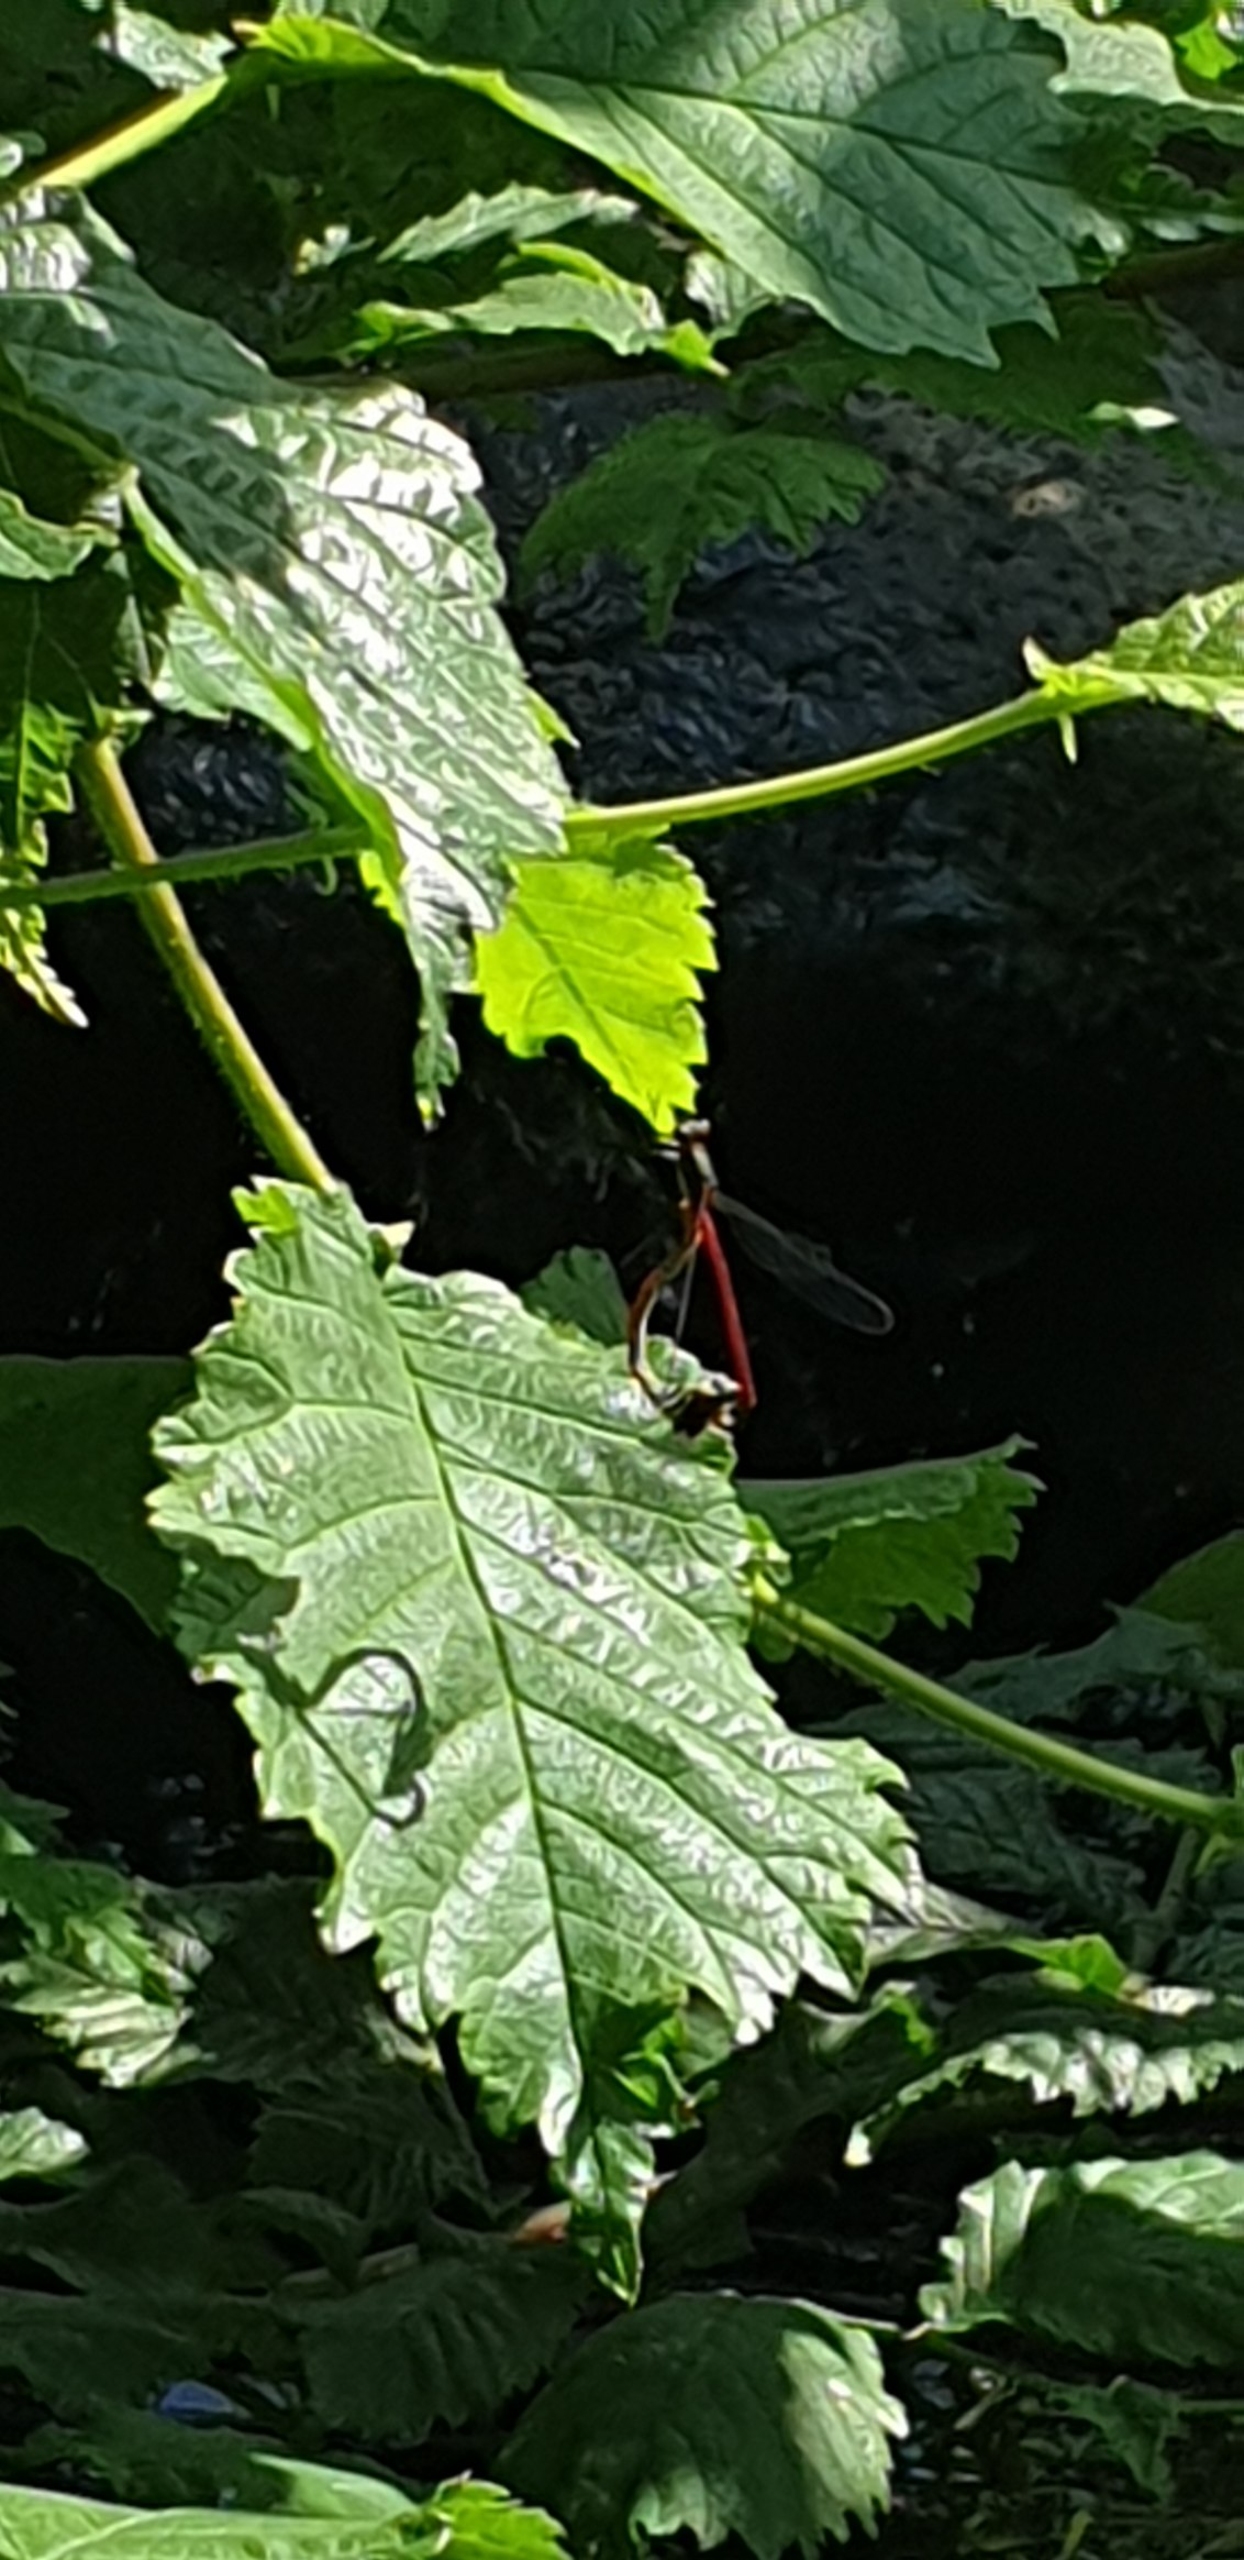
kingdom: Animalia
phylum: Arthropoda
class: Insecta
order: Odonata
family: Coenagrionidae
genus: Pyrrhosoma
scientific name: Pyrrhosoma nymphula
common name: Rød vandnymfe
